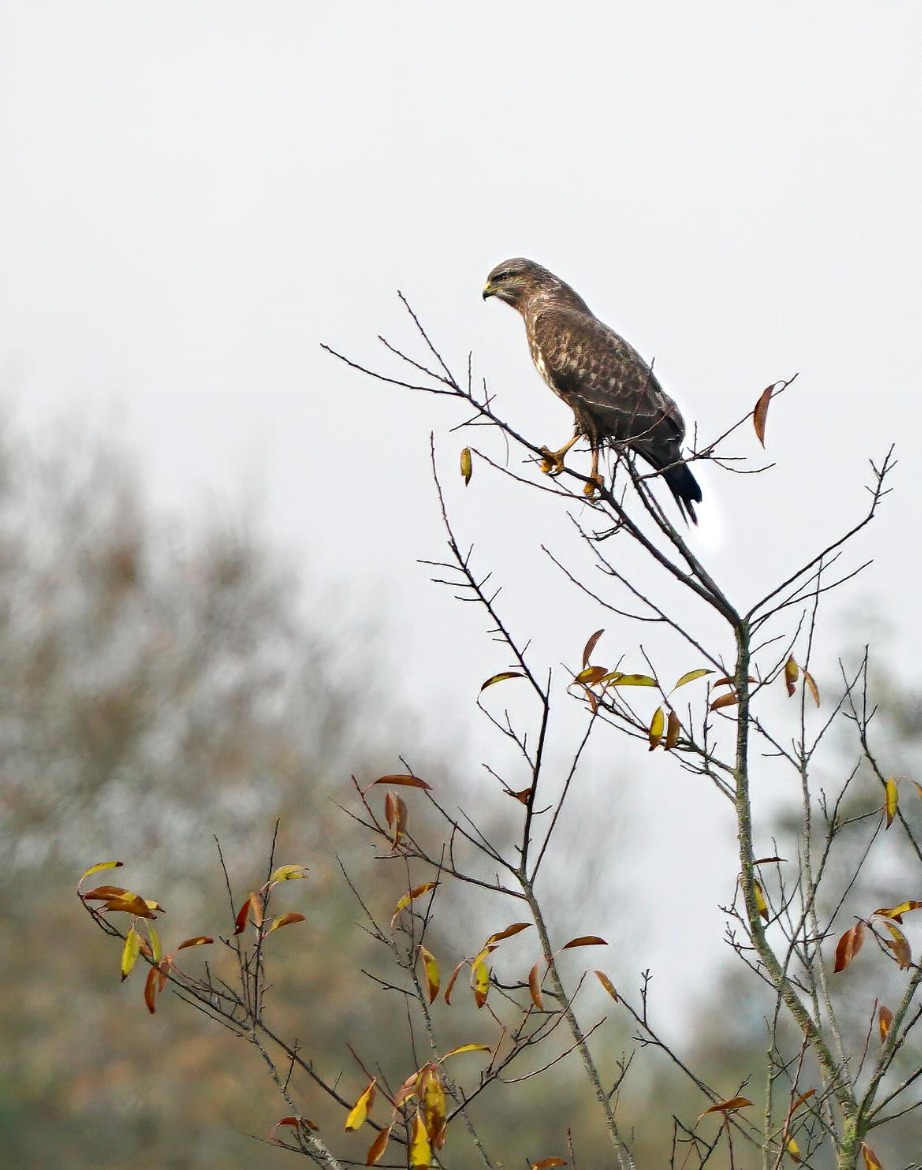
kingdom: Animalia
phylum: Chordata
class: Aves
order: Accipitriformes
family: Accipitridae
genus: Buteo
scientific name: Buteo buteo
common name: Musvåge
